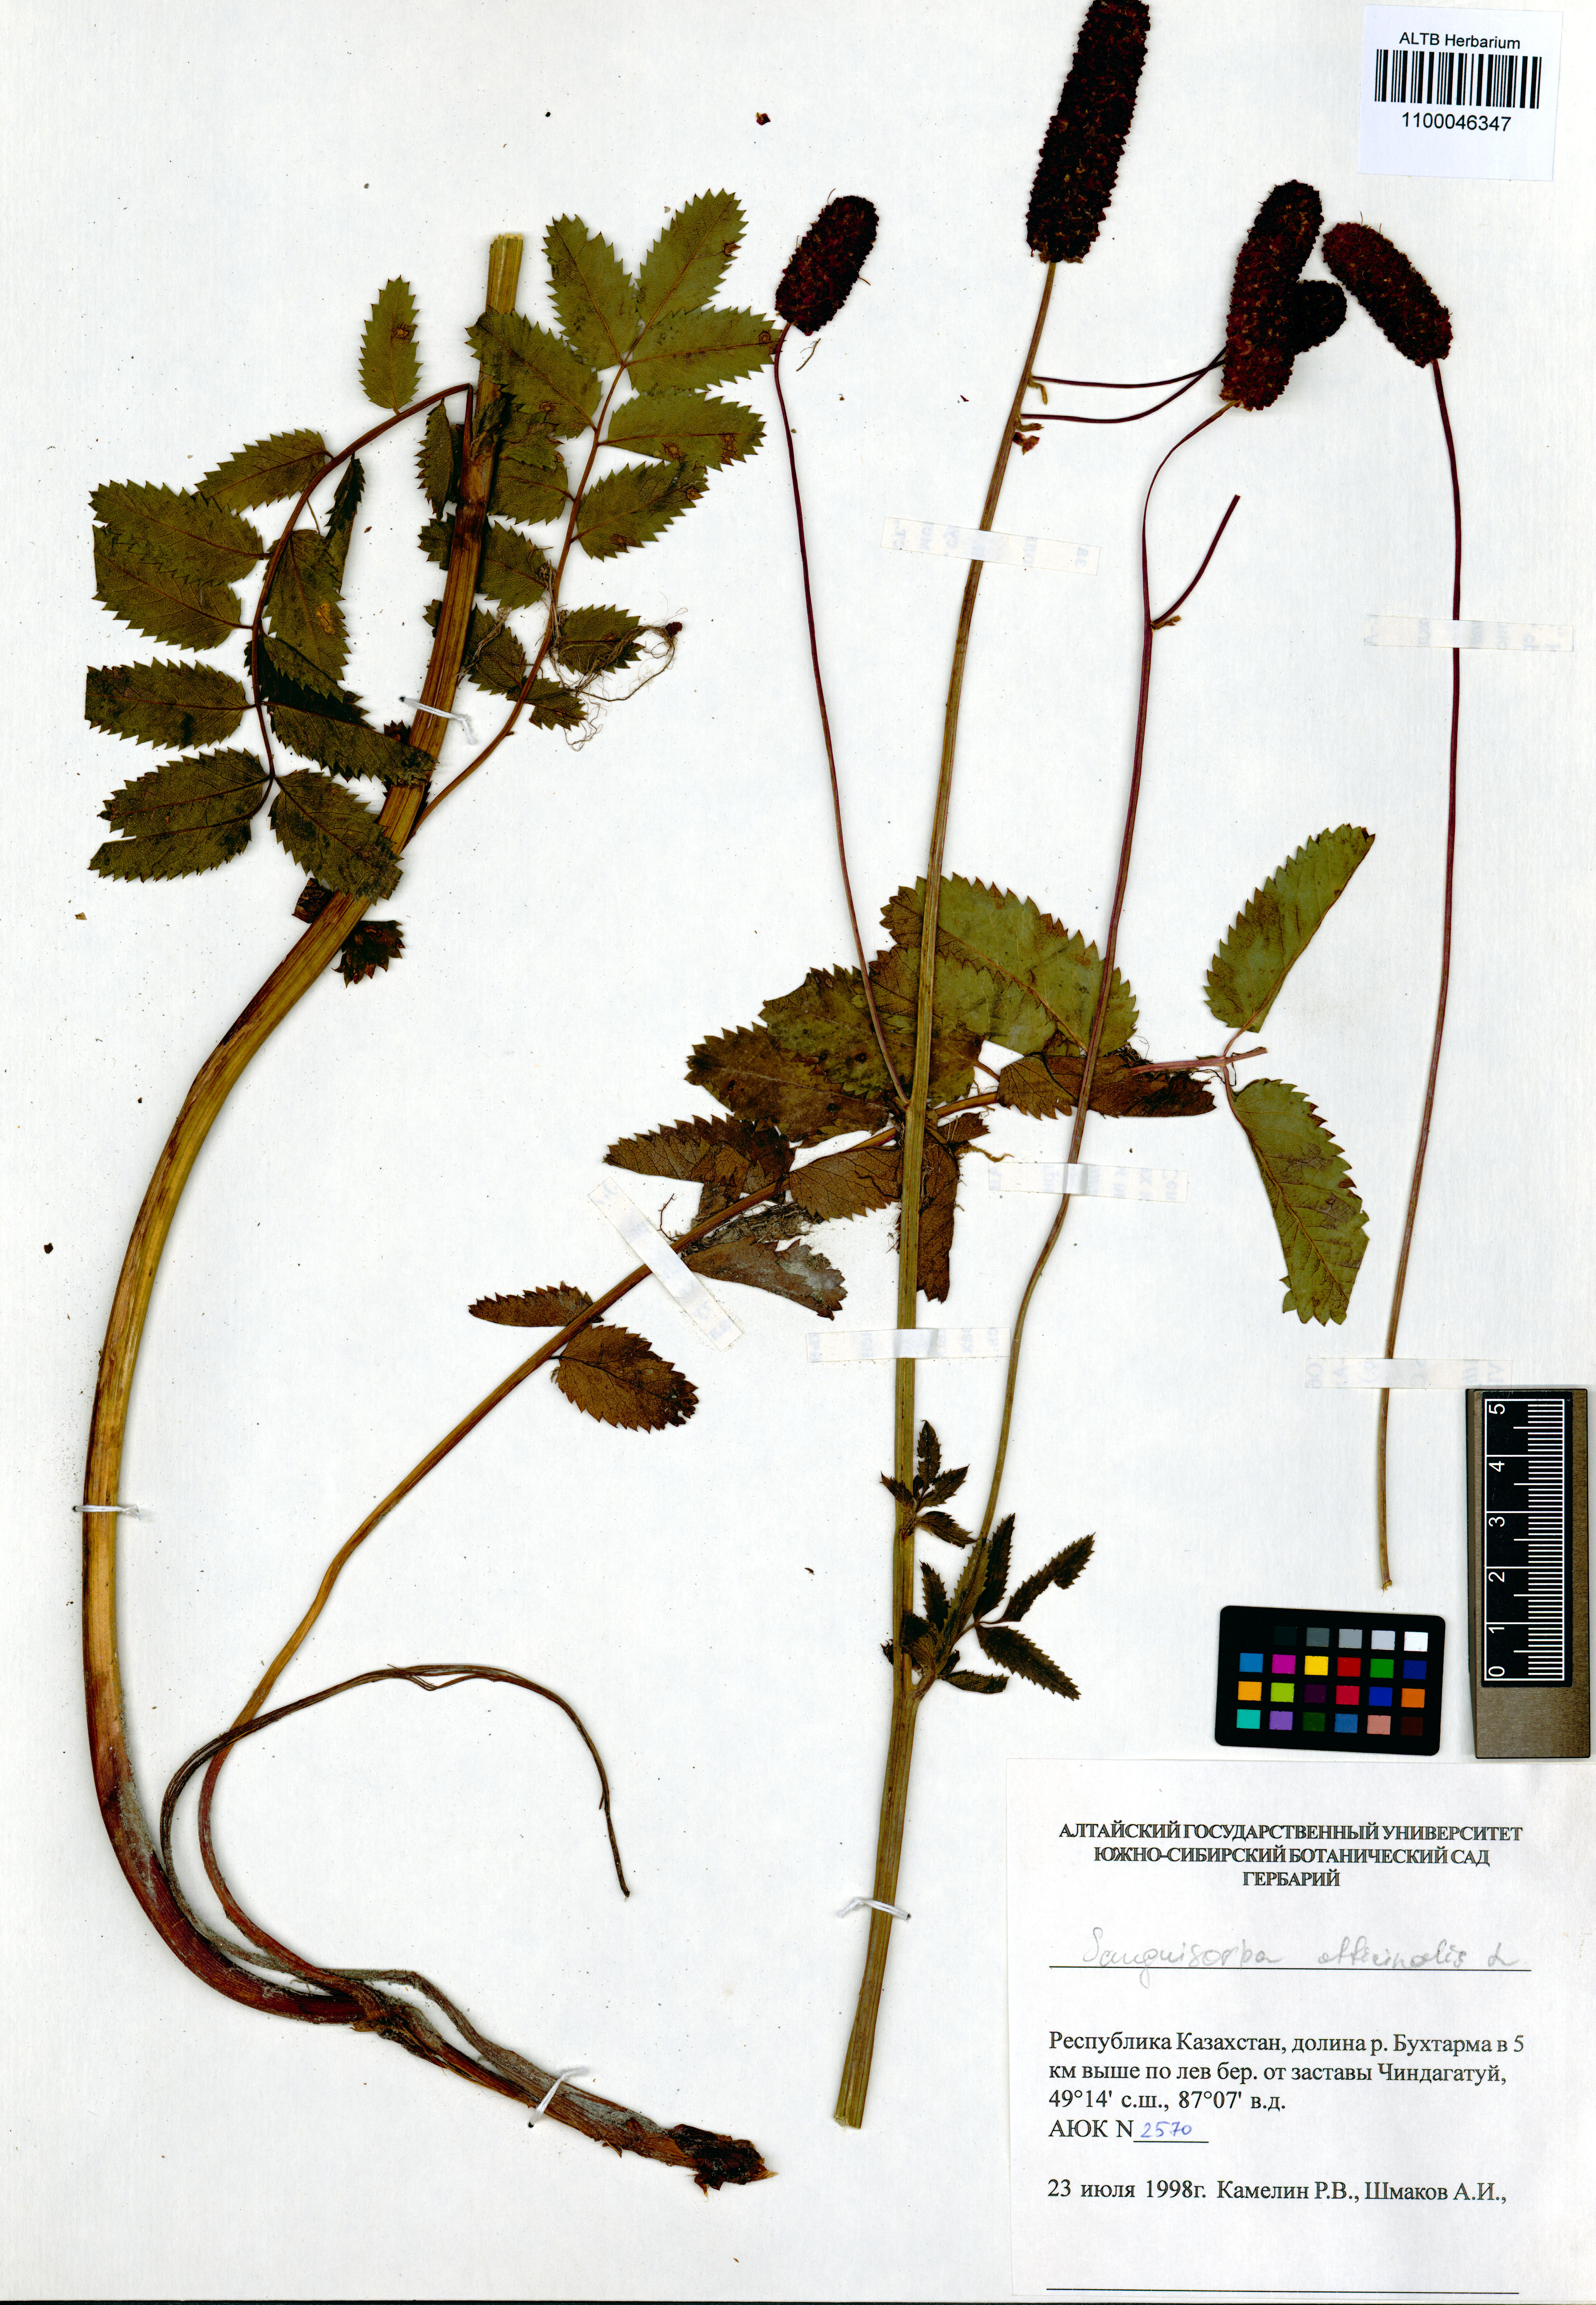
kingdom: Plantae
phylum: Tracheophyta
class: Magnoliopsida
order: Rosales
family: Rosaceae
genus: Sanguisorba
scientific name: Sanguisorba officinalis
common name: Great burnet
